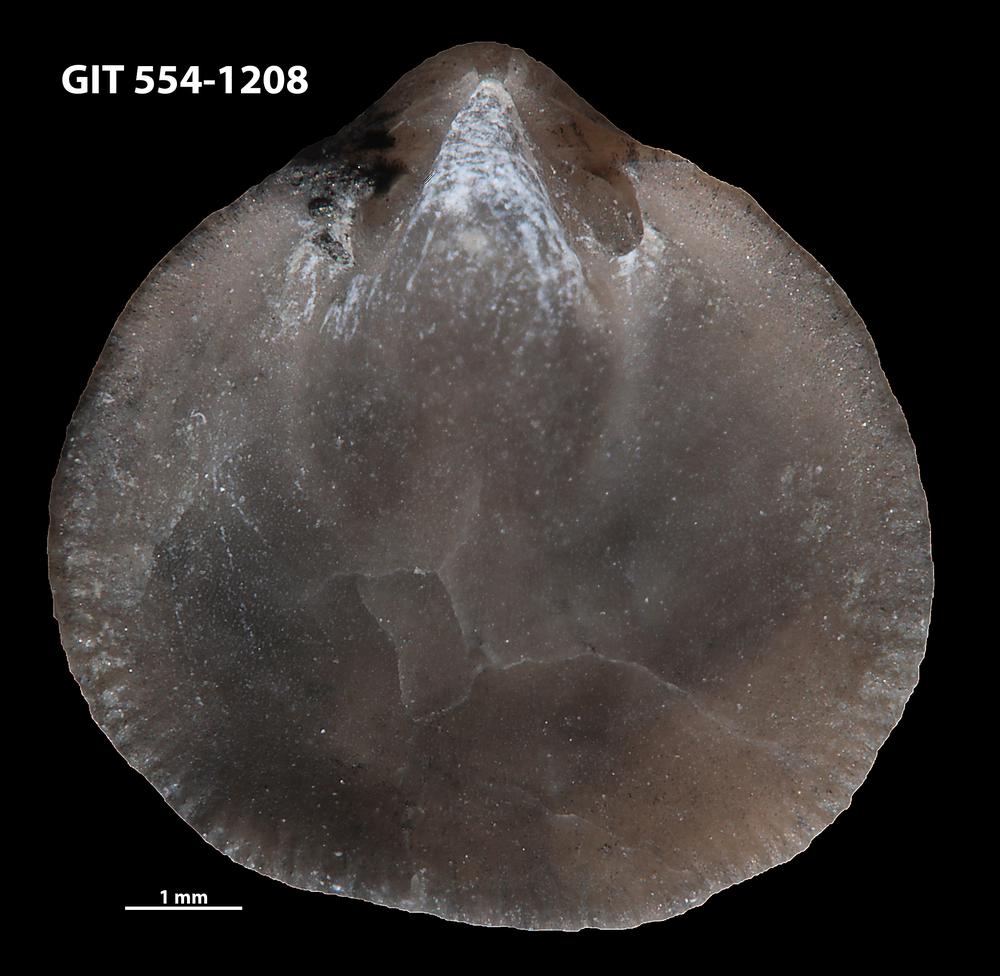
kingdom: Animalia
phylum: Brachiopoda
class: Rhynchonellata
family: Rhipidomellidae
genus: Mendacella
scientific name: Mendacella Orthis hybrida
